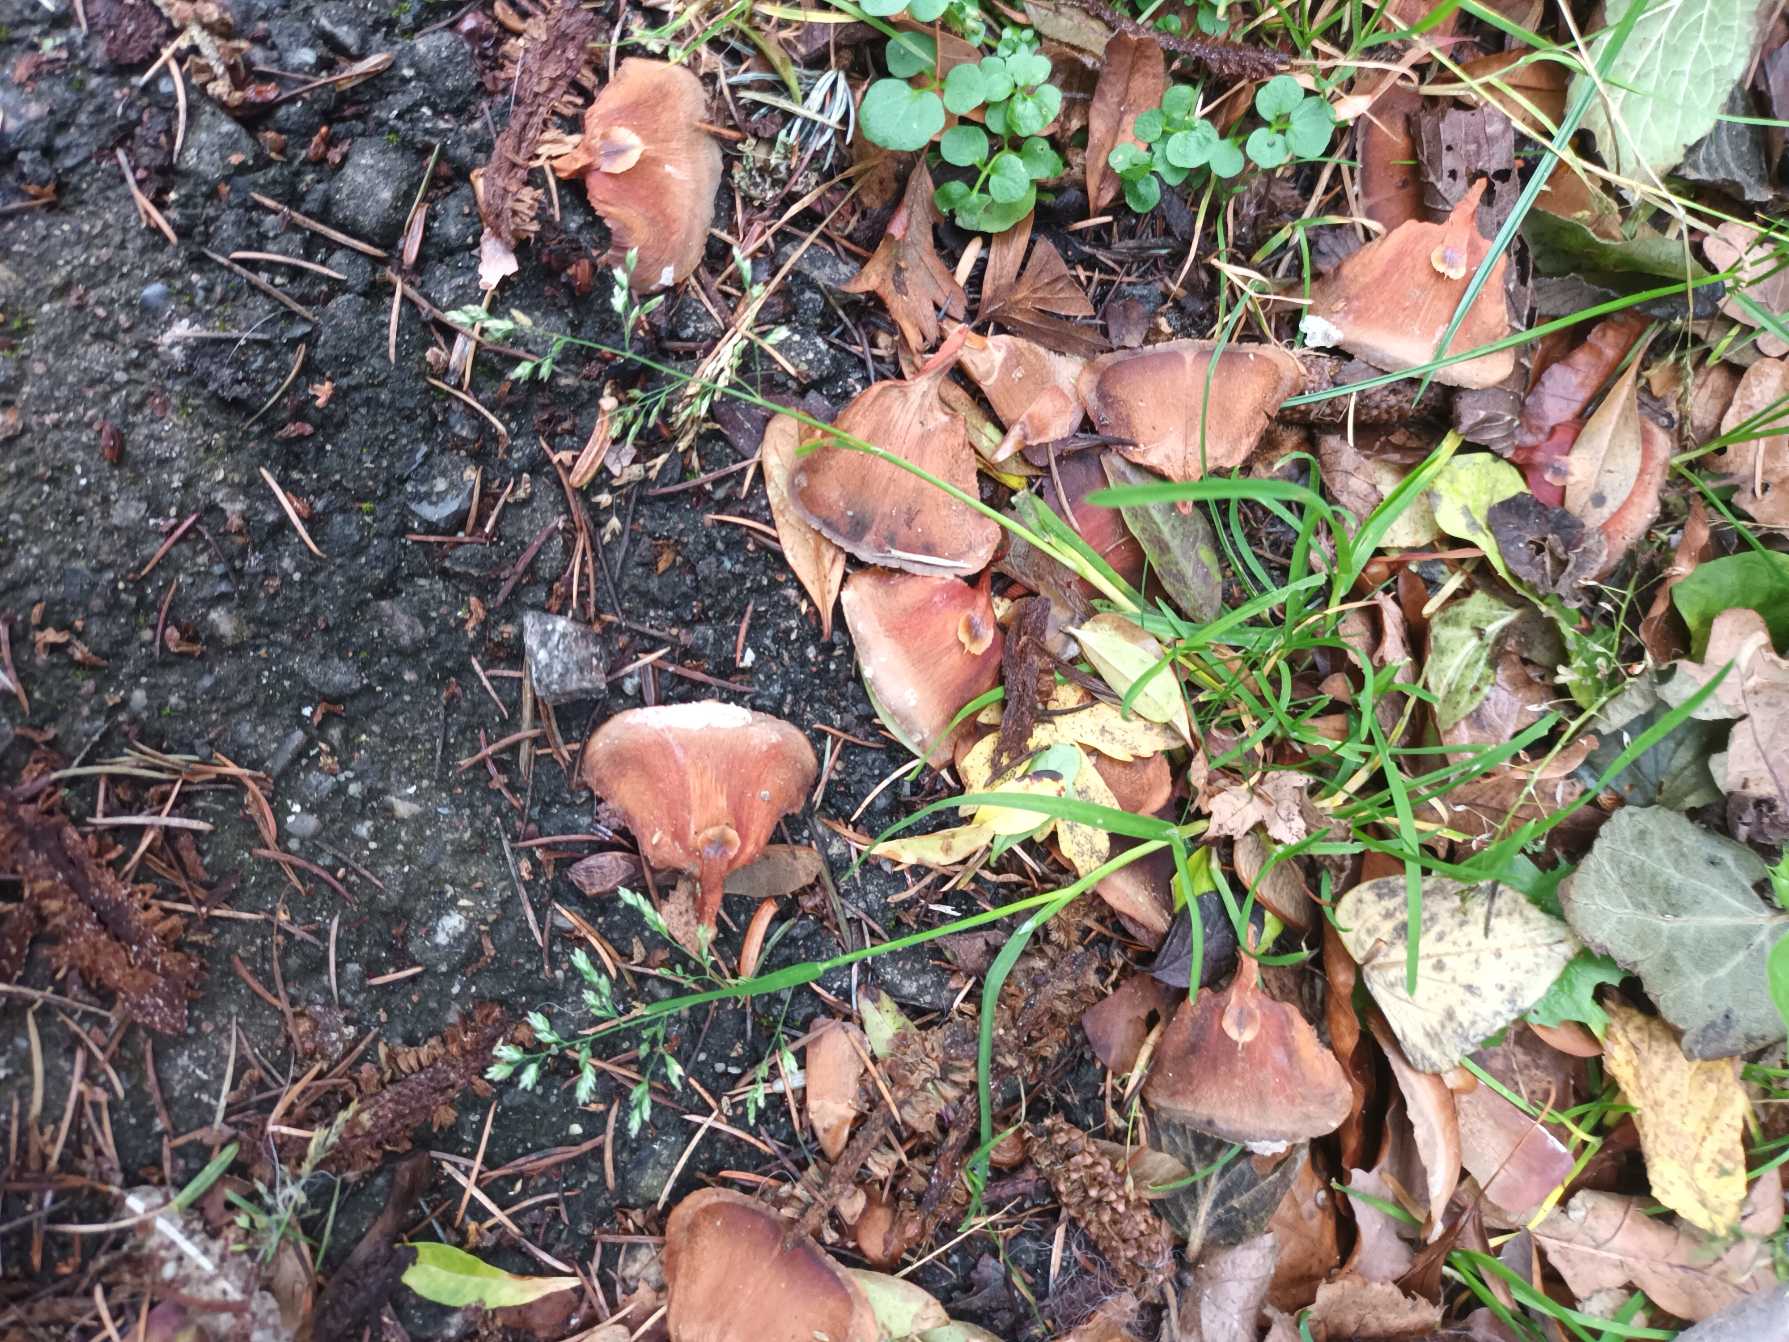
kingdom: Plantae
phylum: Tracheophyta
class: Liliopsida
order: Poales
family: Poaceae
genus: Poa
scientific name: Poa annua
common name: Enårig rapgræs
